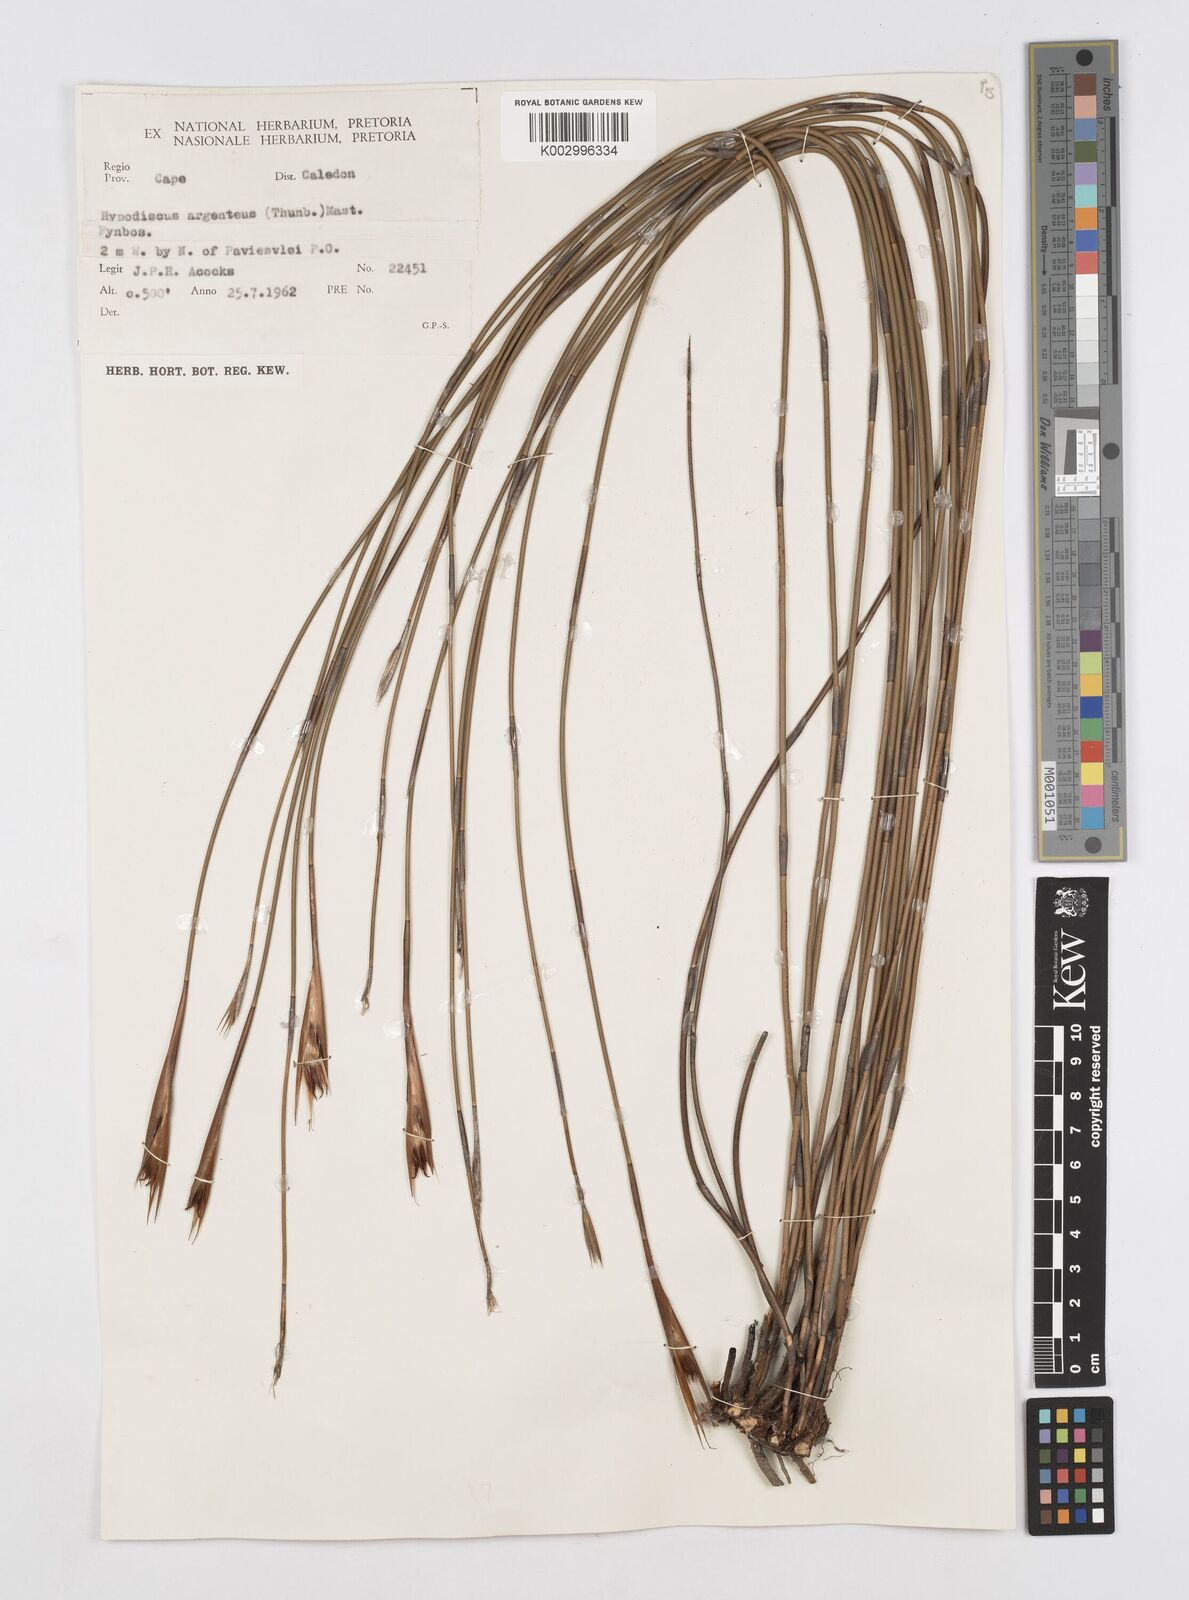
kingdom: Plantae
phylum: Tracheophyta
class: Liliopsida
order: Poales
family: Restionaceae
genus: Hypodiscus
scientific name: Hypodiscus argenteus
